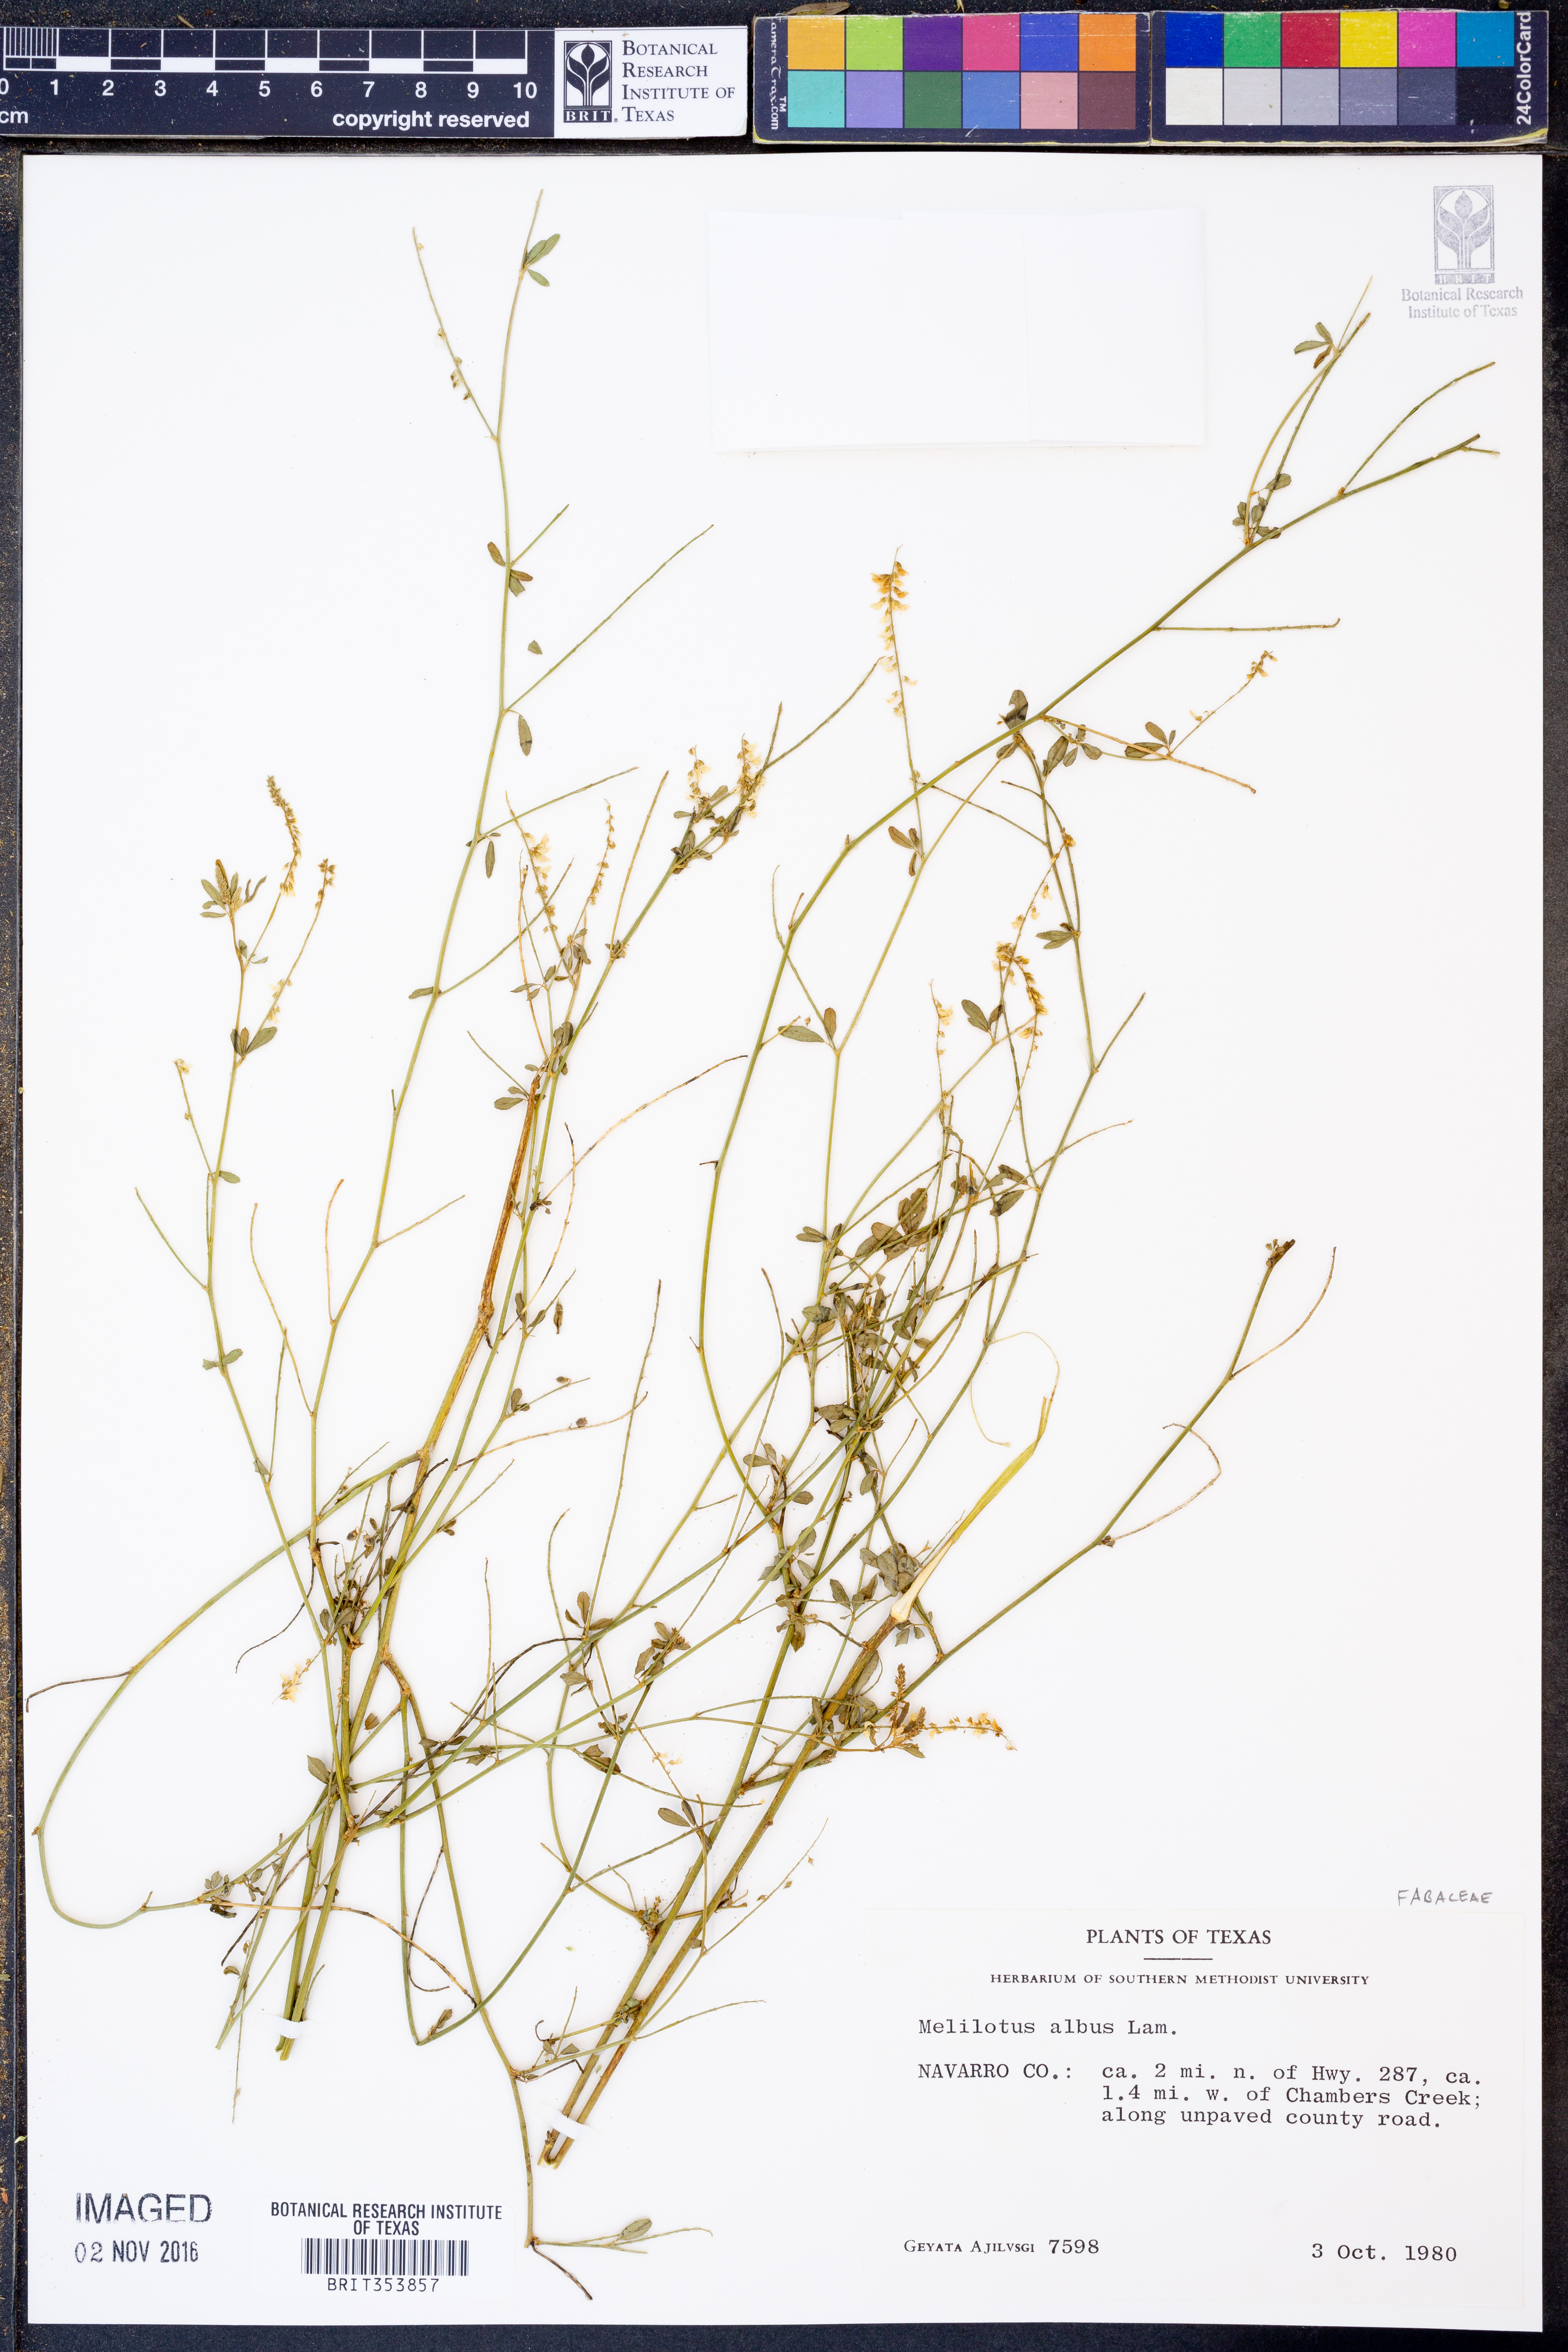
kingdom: Plantae
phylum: Tracheophyta
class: Magnoliopsida
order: Fabales
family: Fabaceae
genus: Melilotus
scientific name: Melilotus albus
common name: White melilot
